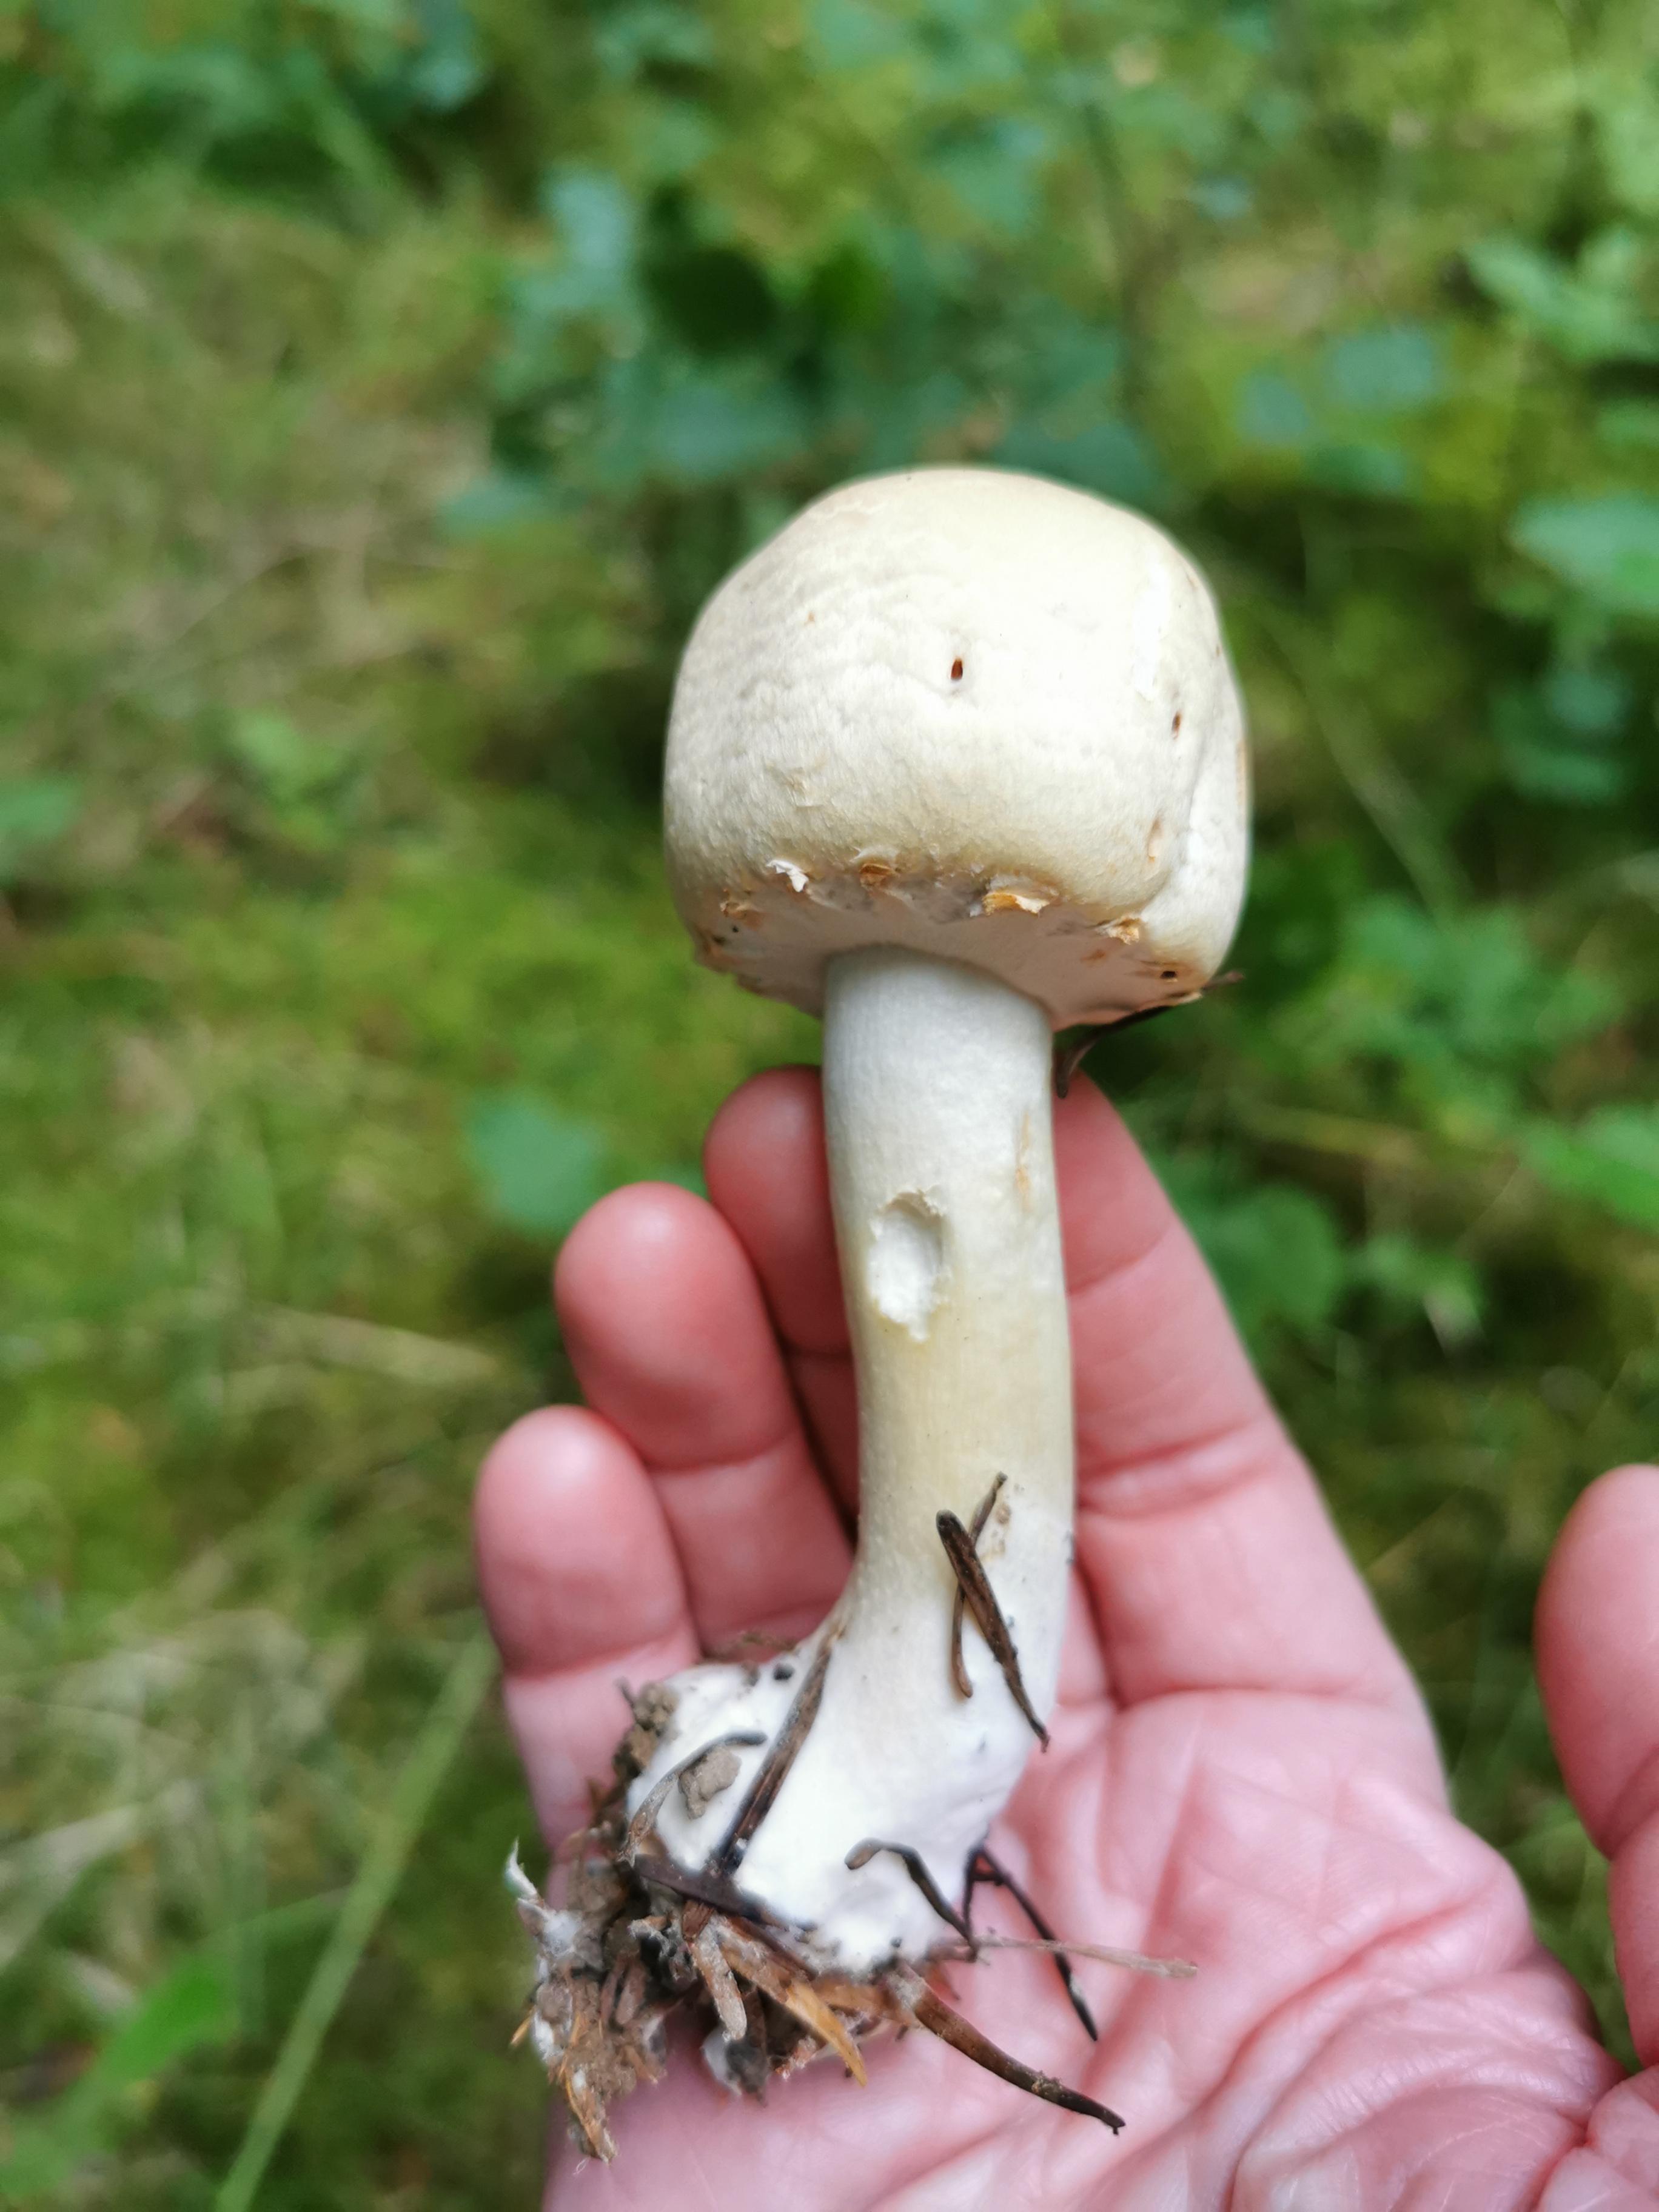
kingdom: Fungi
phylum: Basidiomycota
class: Agaricomycetes
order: Agaricales
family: Agaricaceae
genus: Agaricus
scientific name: Agaricus
